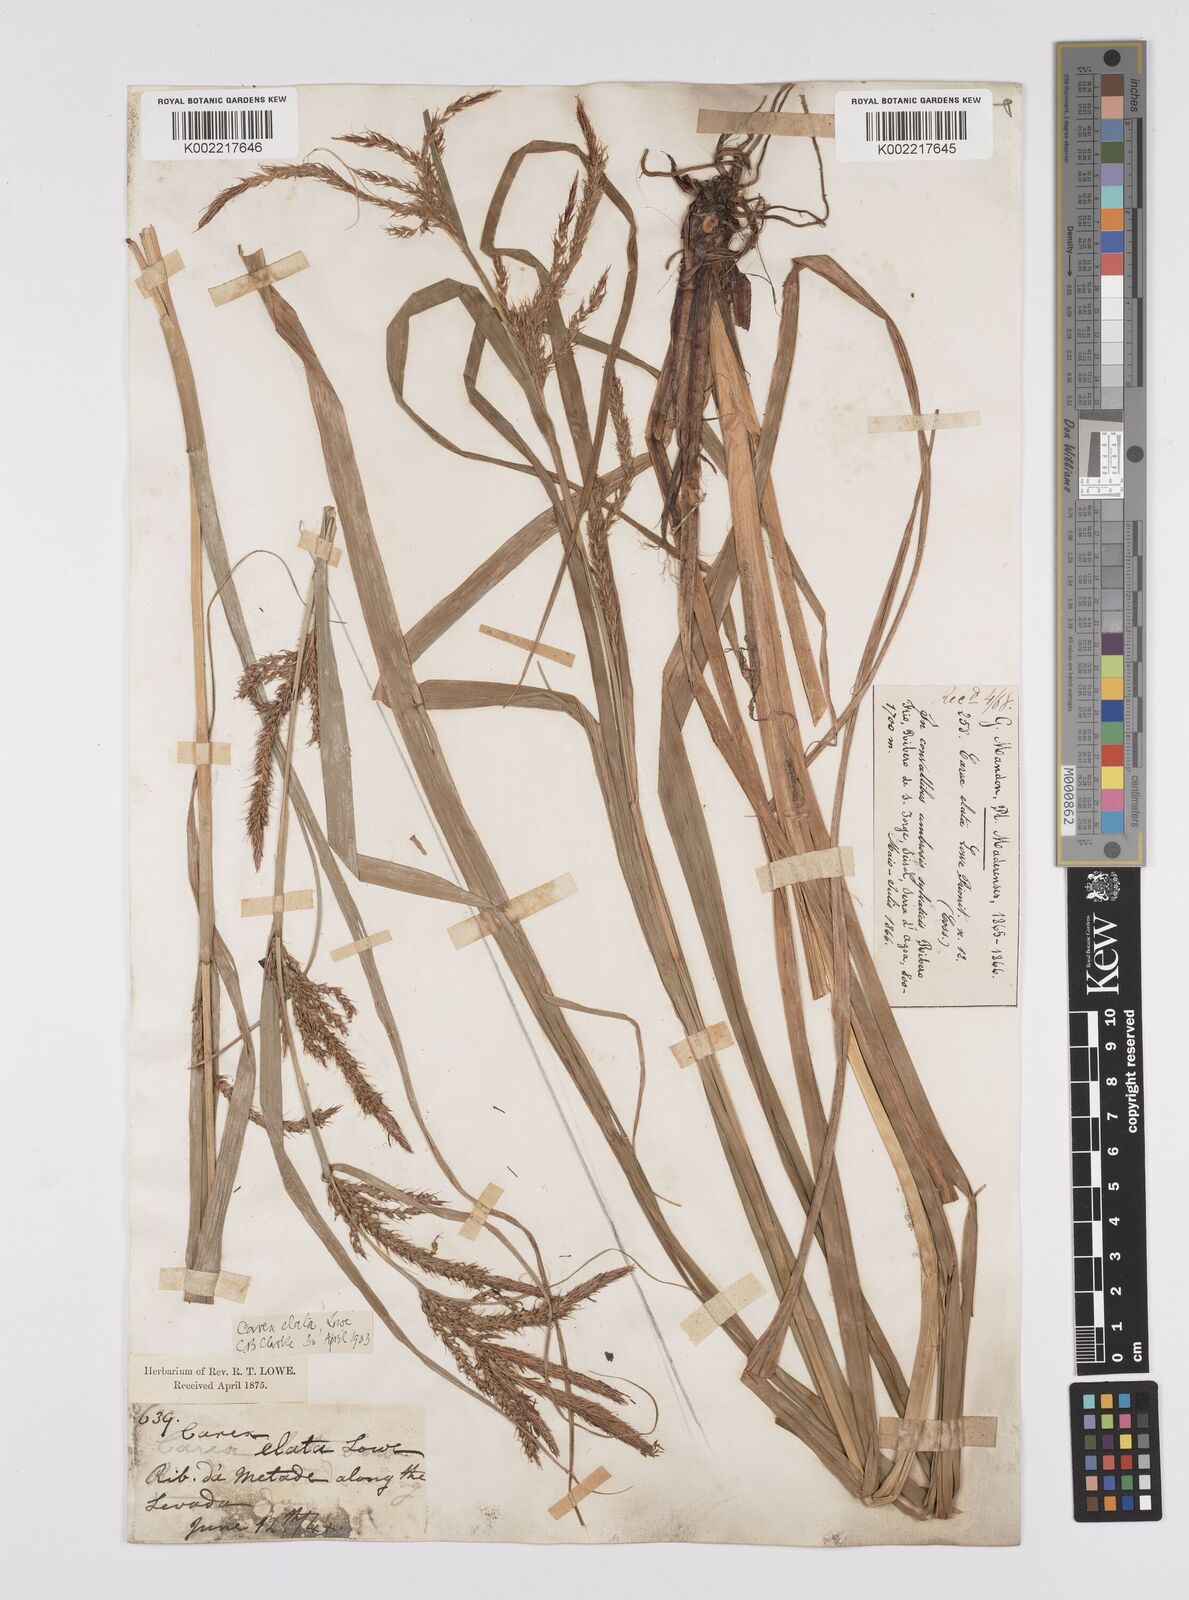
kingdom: Plantae
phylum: Tracheophyta
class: Liliopsida
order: Poales
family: Cyperaceae
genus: Carex
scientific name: Carex lowei
